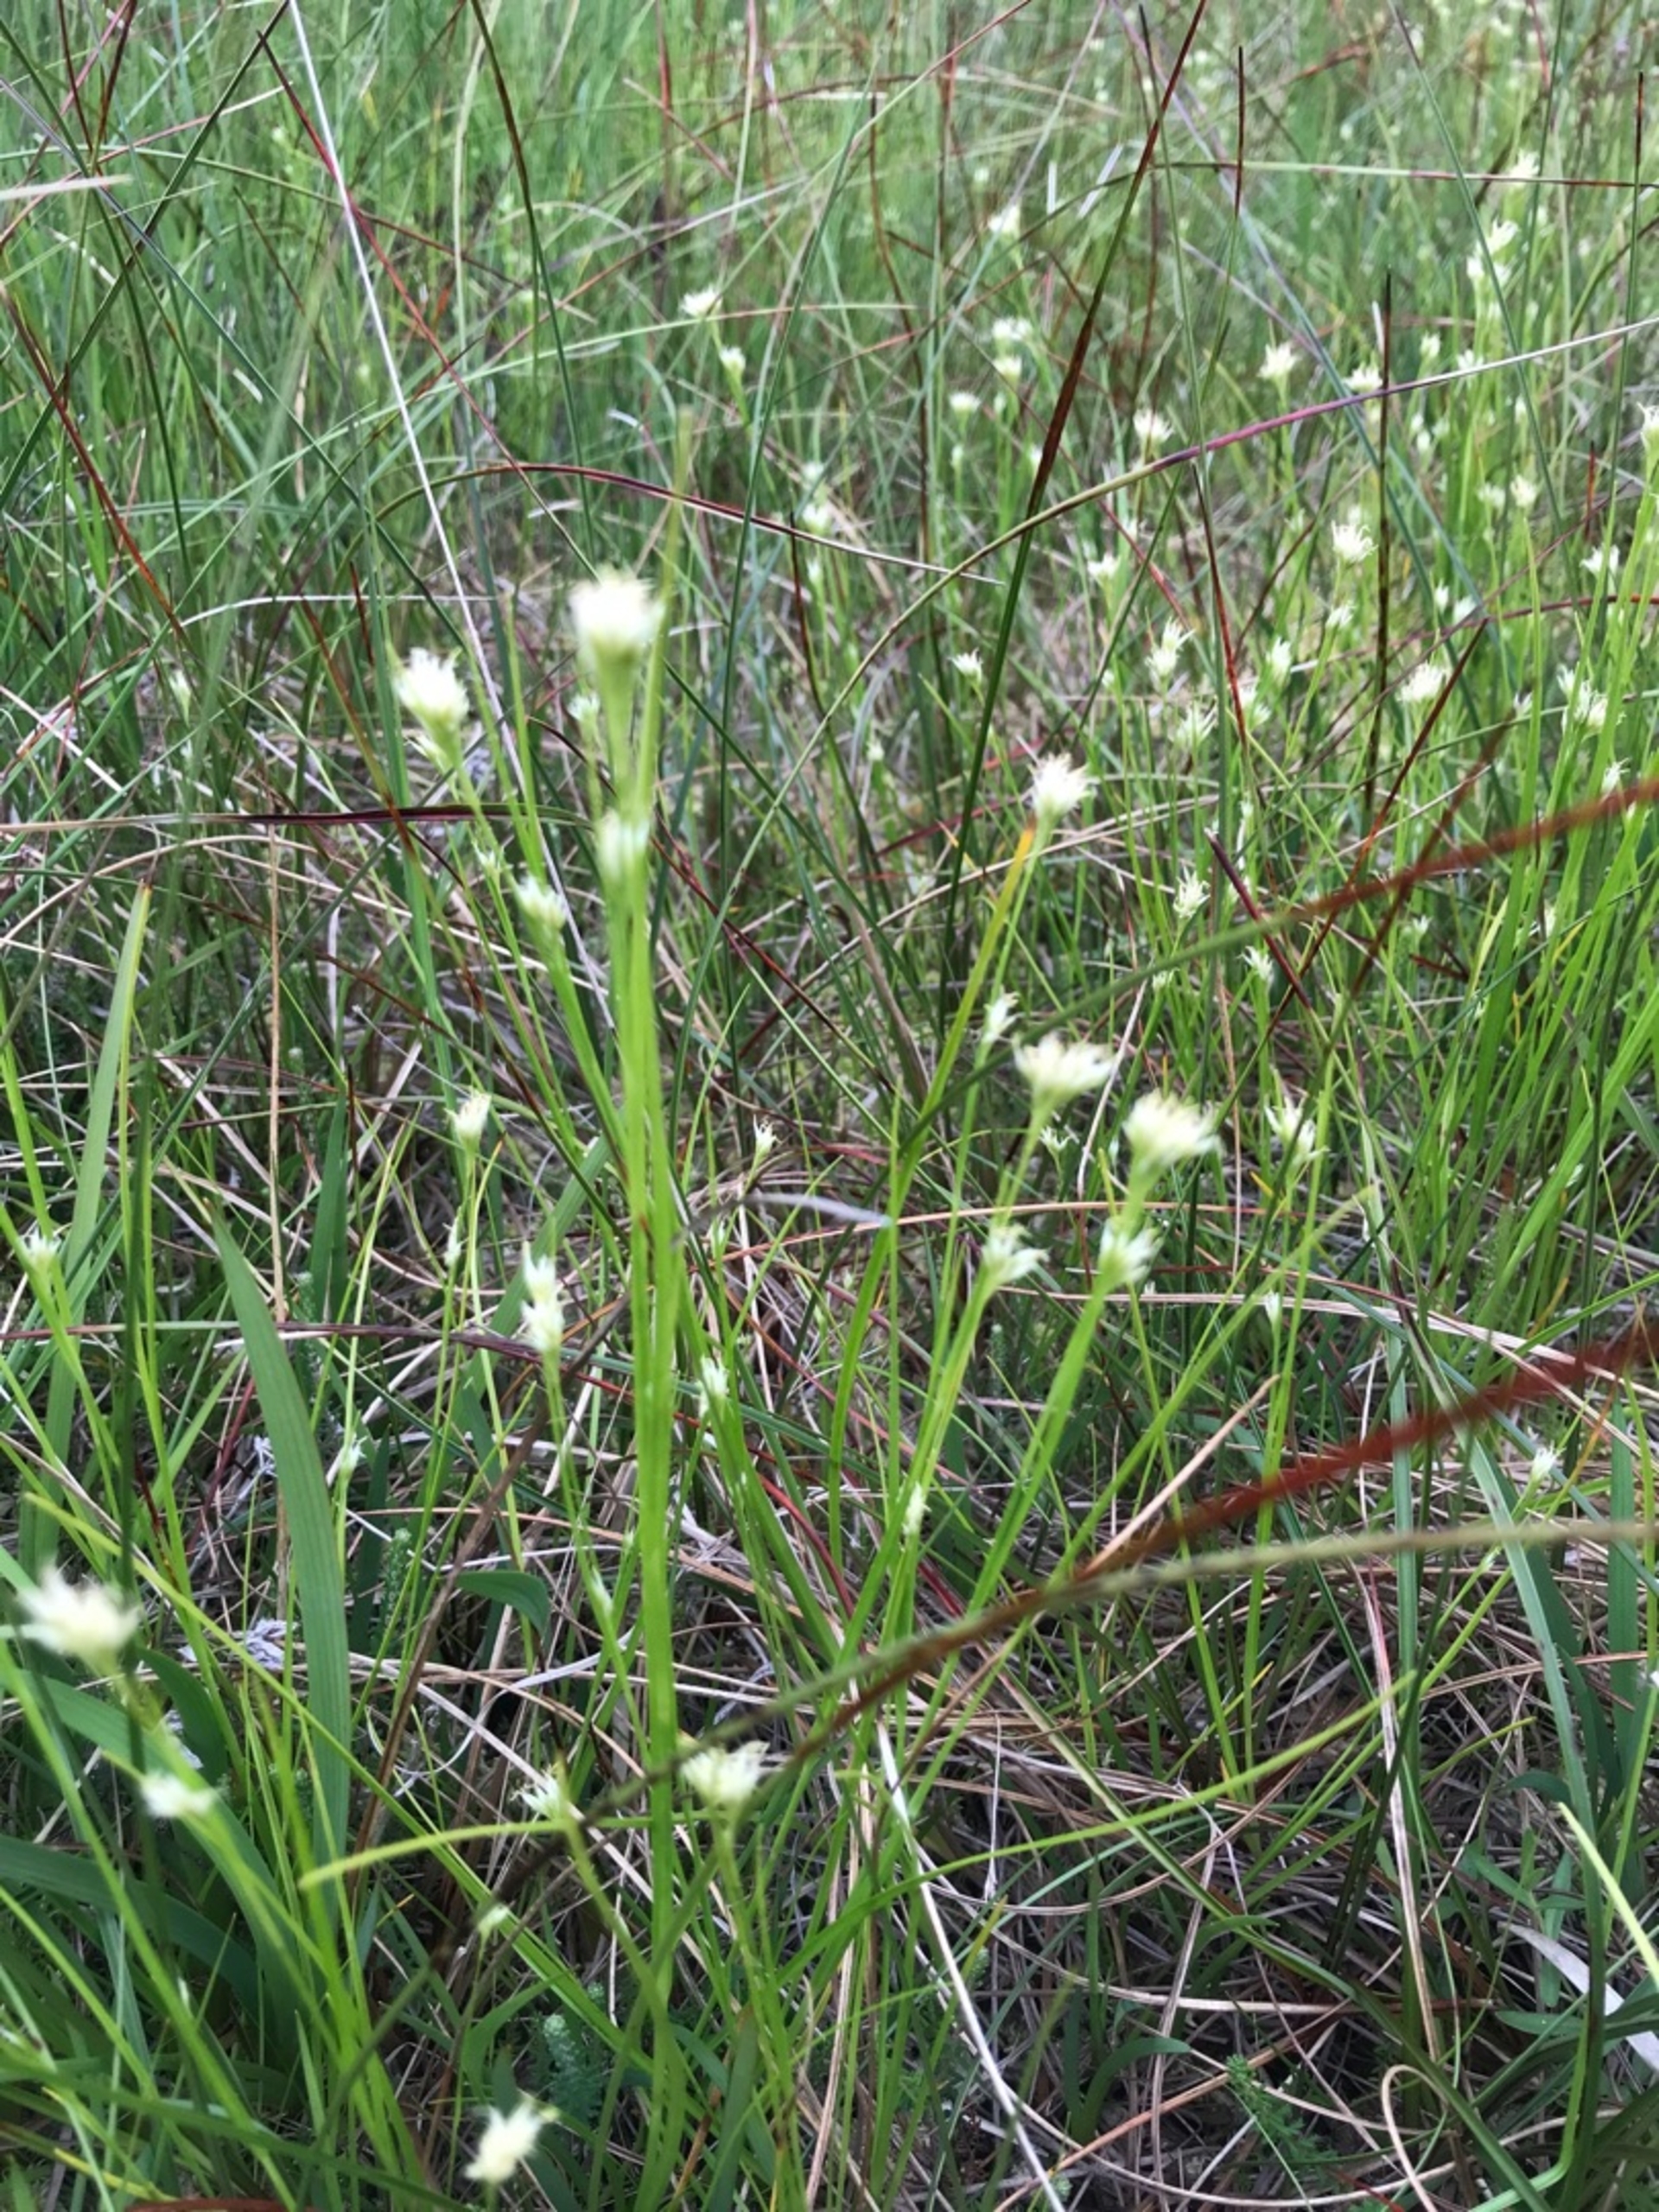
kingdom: Plantae
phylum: Tracheophyta
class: Liliopsida
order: Poales
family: Cyperaceae
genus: Rhynchospora
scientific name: Rhynchospora alba
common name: Hvid næbfrø
